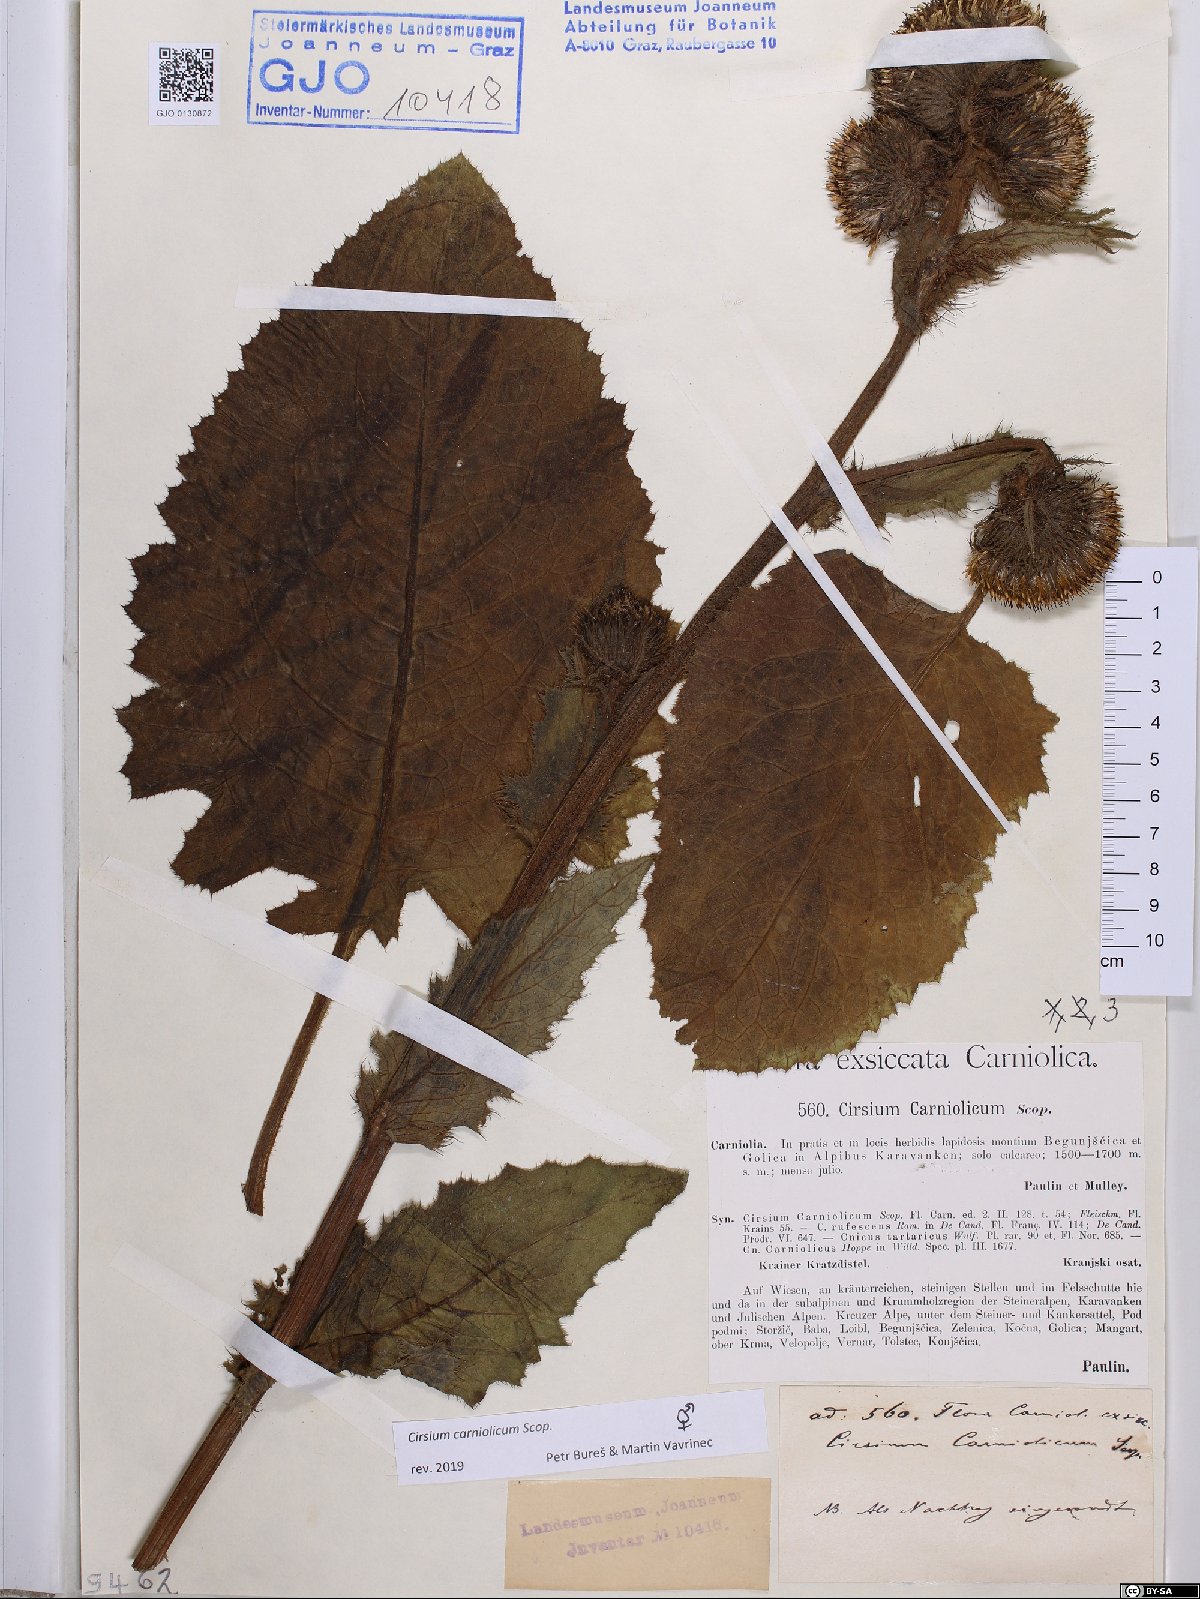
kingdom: Plantae
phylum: Tracheophyta
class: Magnoliopsida
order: Asterales
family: Asteraceae
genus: Cirsium
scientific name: Cirsium carniolicum
